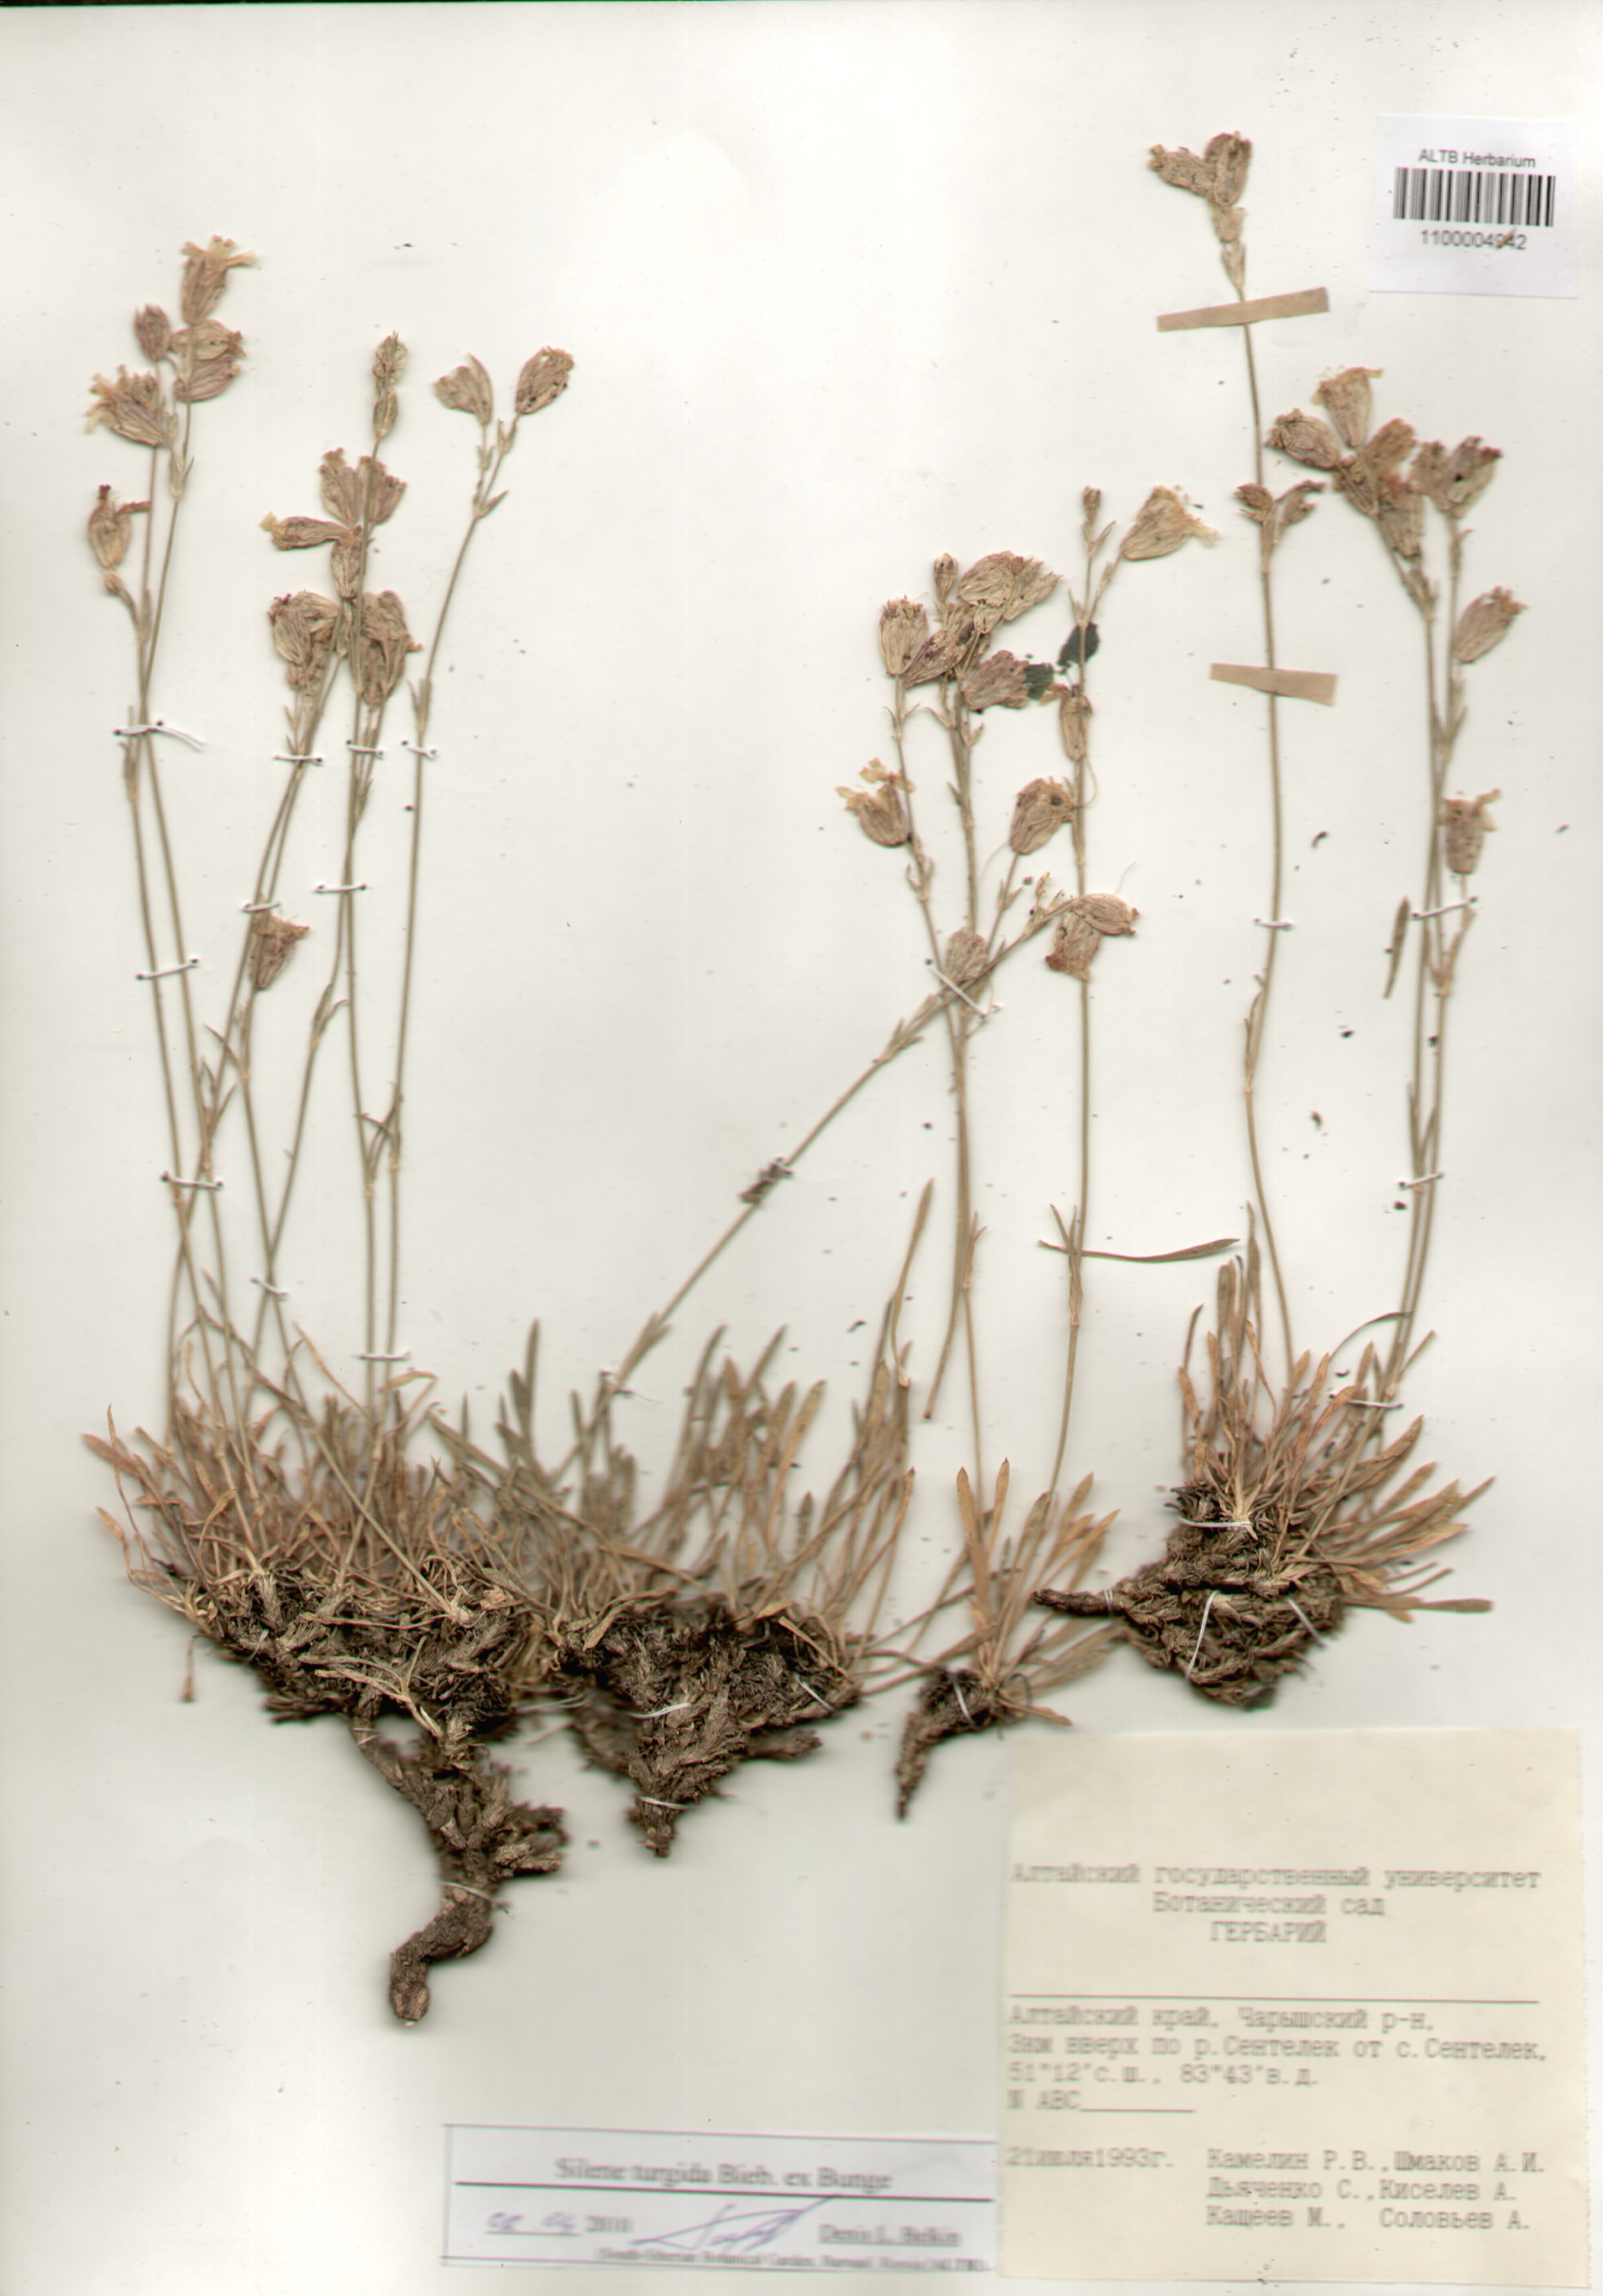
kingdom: Plantae
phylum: Tracheophyta
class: Magnoliopsida
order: Caryophyllales
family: Caryophyllaceae
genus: Silene
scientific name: Silene turgida
